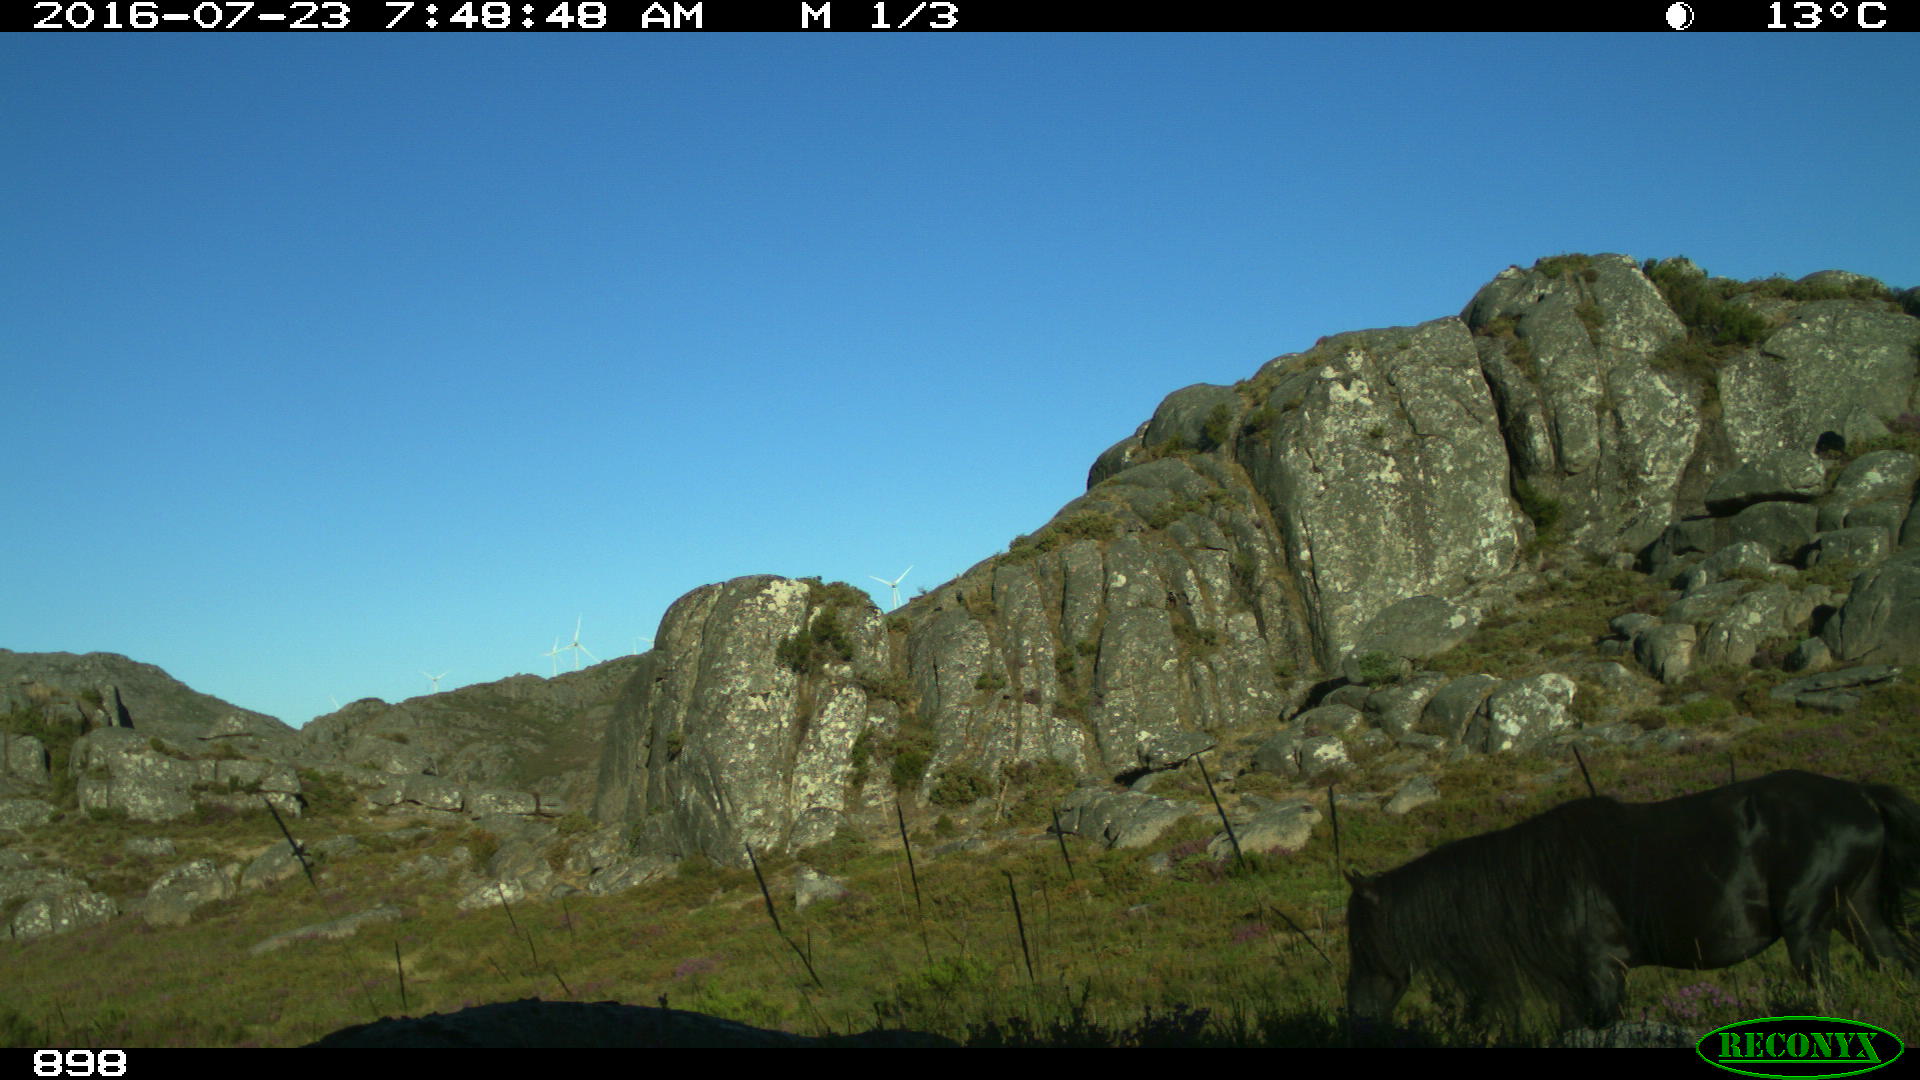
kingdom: Animalia
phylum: Chordata
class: Mammalia
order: Perissodactyla
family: Equidae
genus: Equus
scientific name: Equus caballus
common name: Horse
